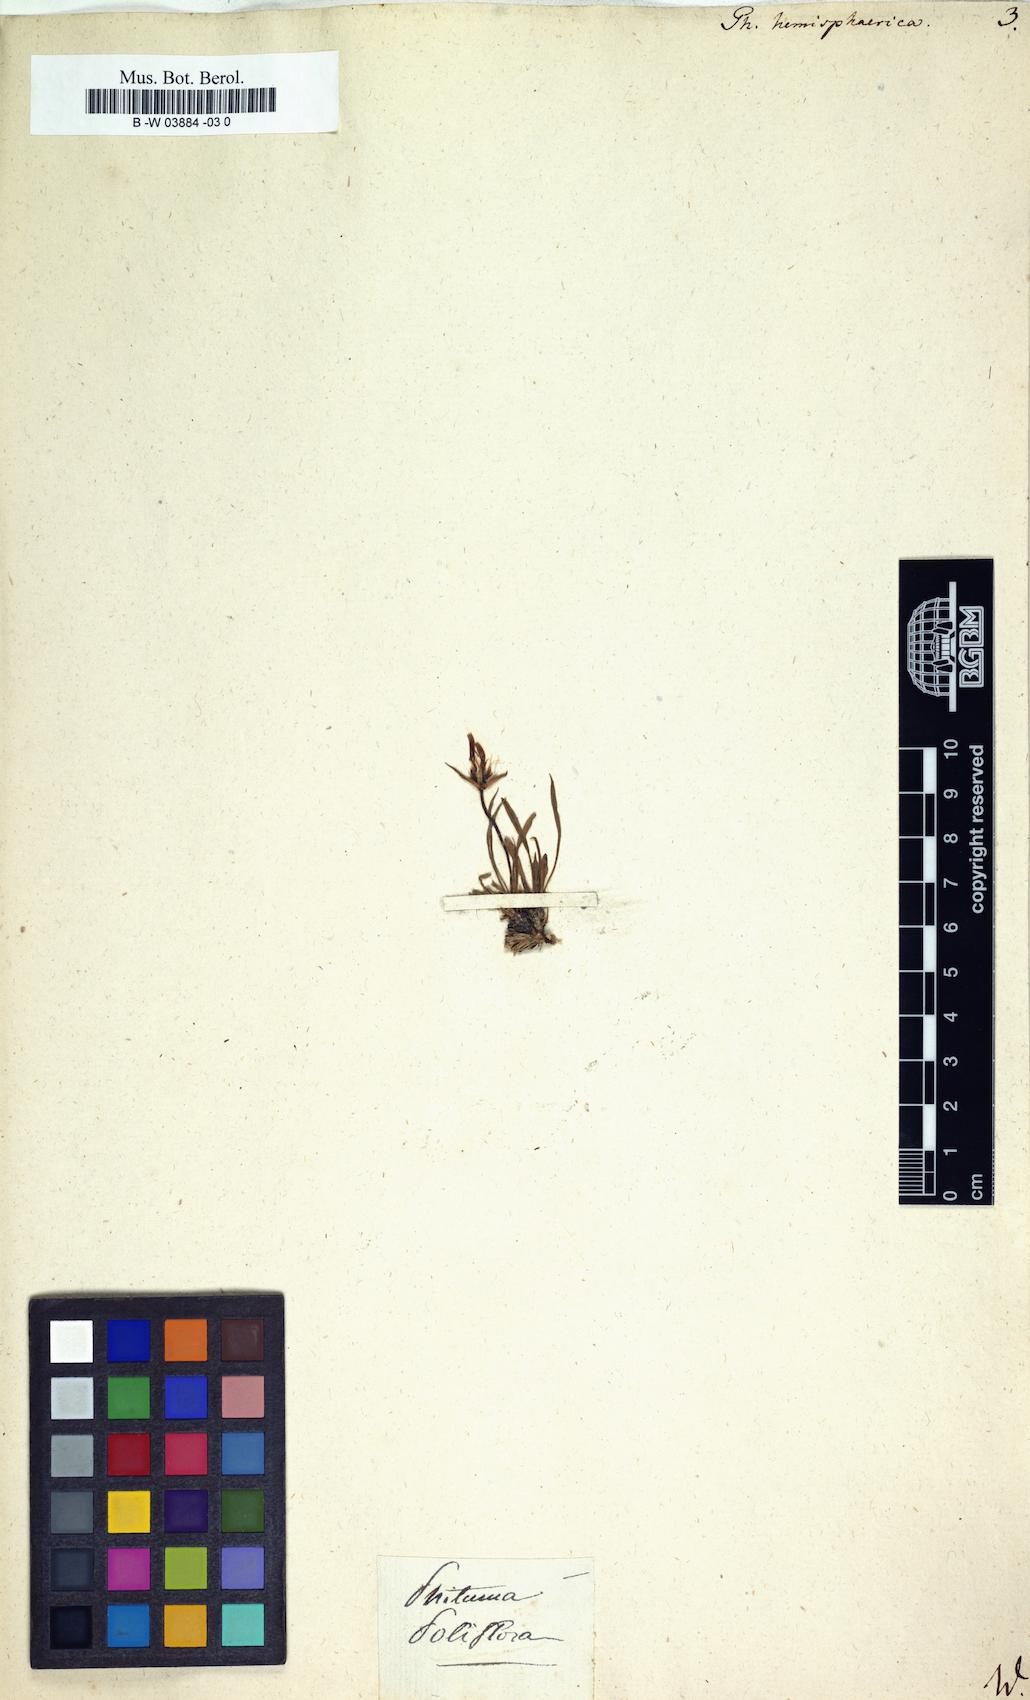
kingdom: Plantae
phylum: Tracheophyta
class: Magnoliopsida
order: Asterales
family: Campanulaceae
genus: Phyteuma
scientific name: Phyteuma hemisphaericum
